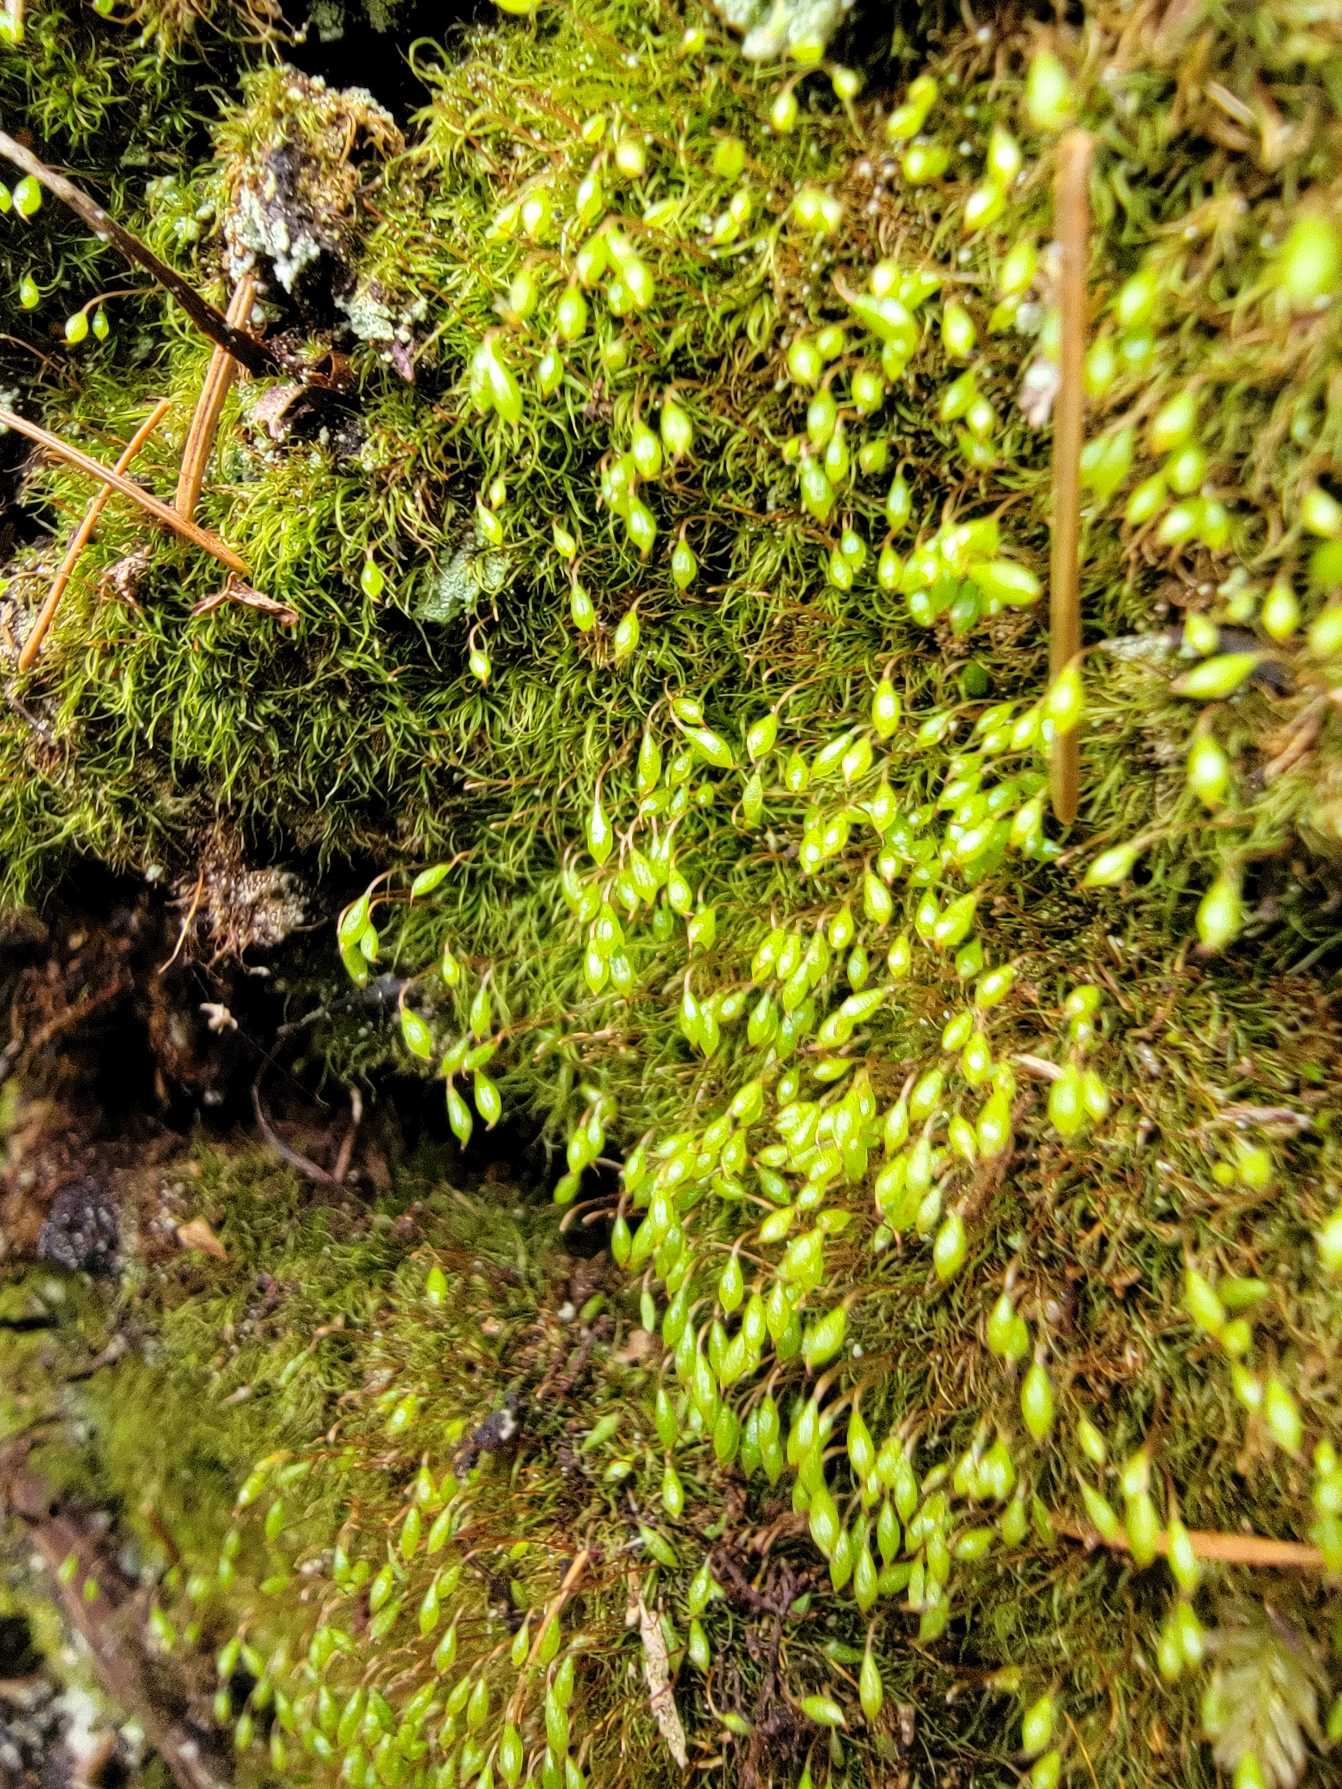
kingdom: Plantae
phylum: Bryophyta
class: Bryopsida
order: Orthodontiales
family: Orthodontiaceae
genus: Orthodontium
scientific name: Orthodontium lineare
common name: Smalbladet plysmos
